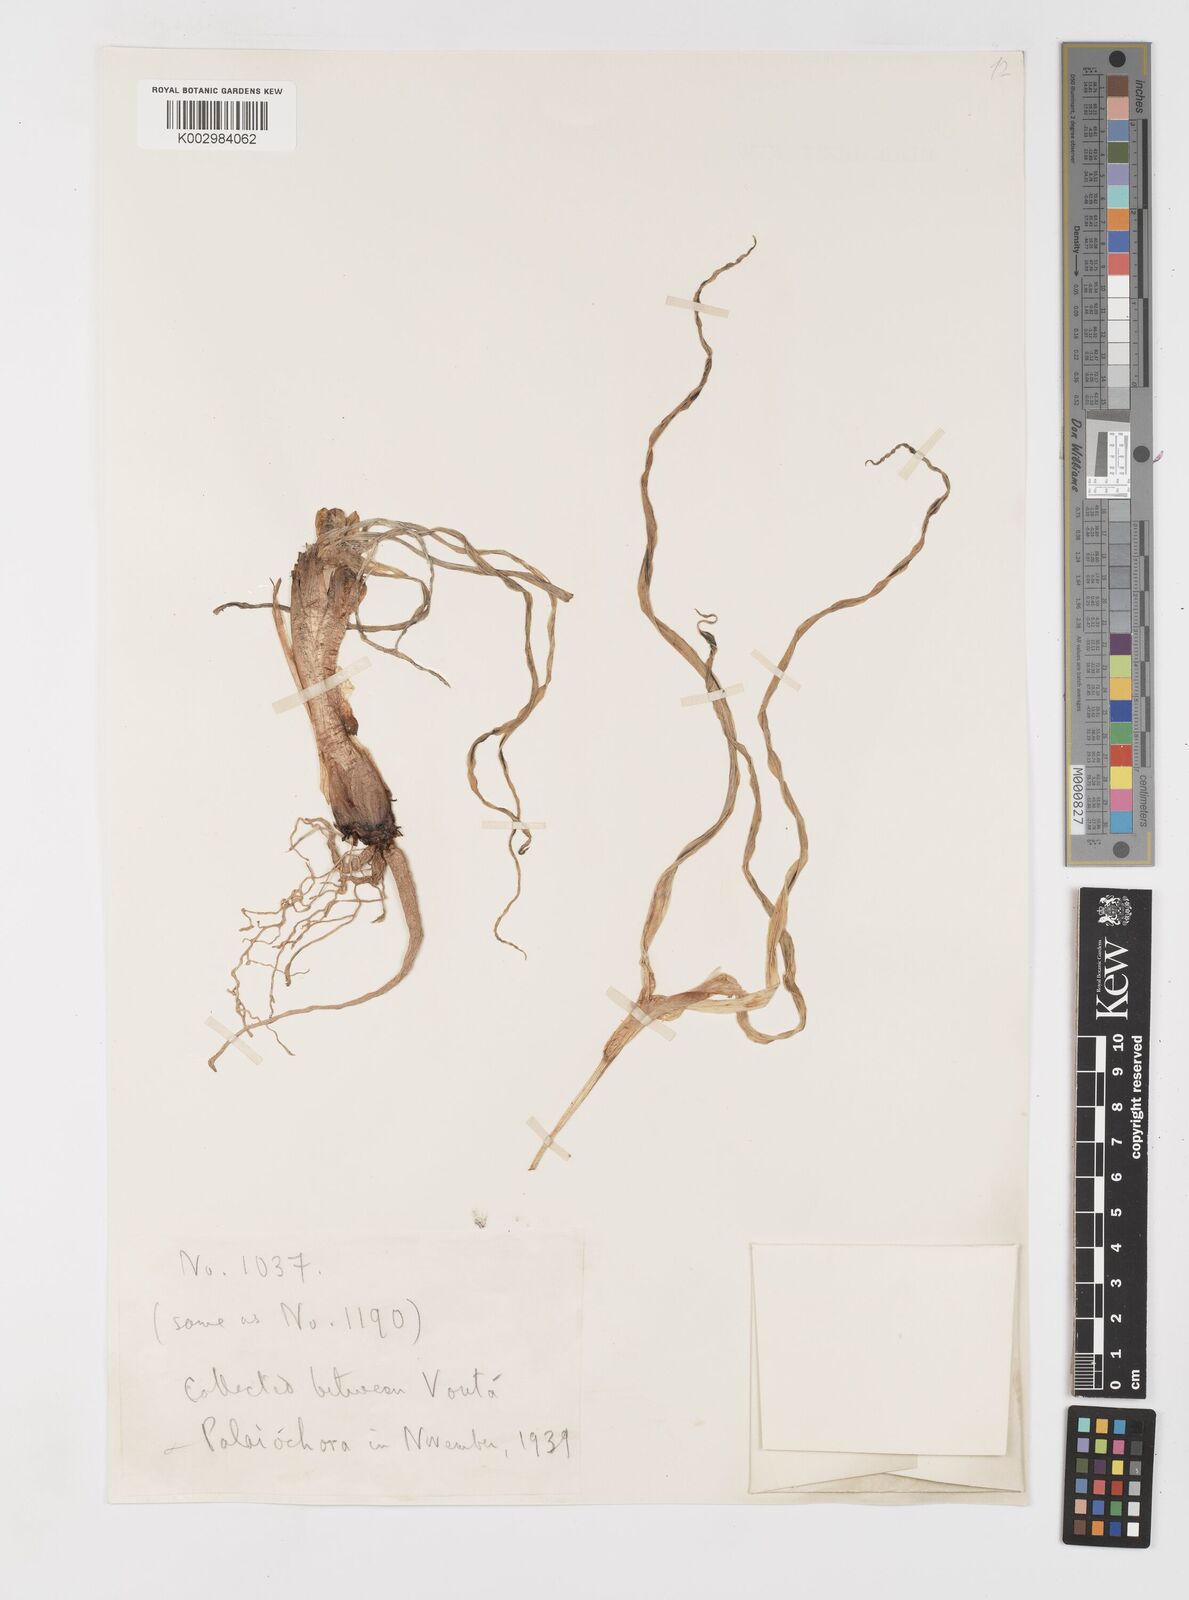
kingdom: Plantae
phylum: Tracheophyta
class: Liliopsida
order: Asparagales
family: Iridaceae
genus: Iris
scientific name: Iris planifolia
